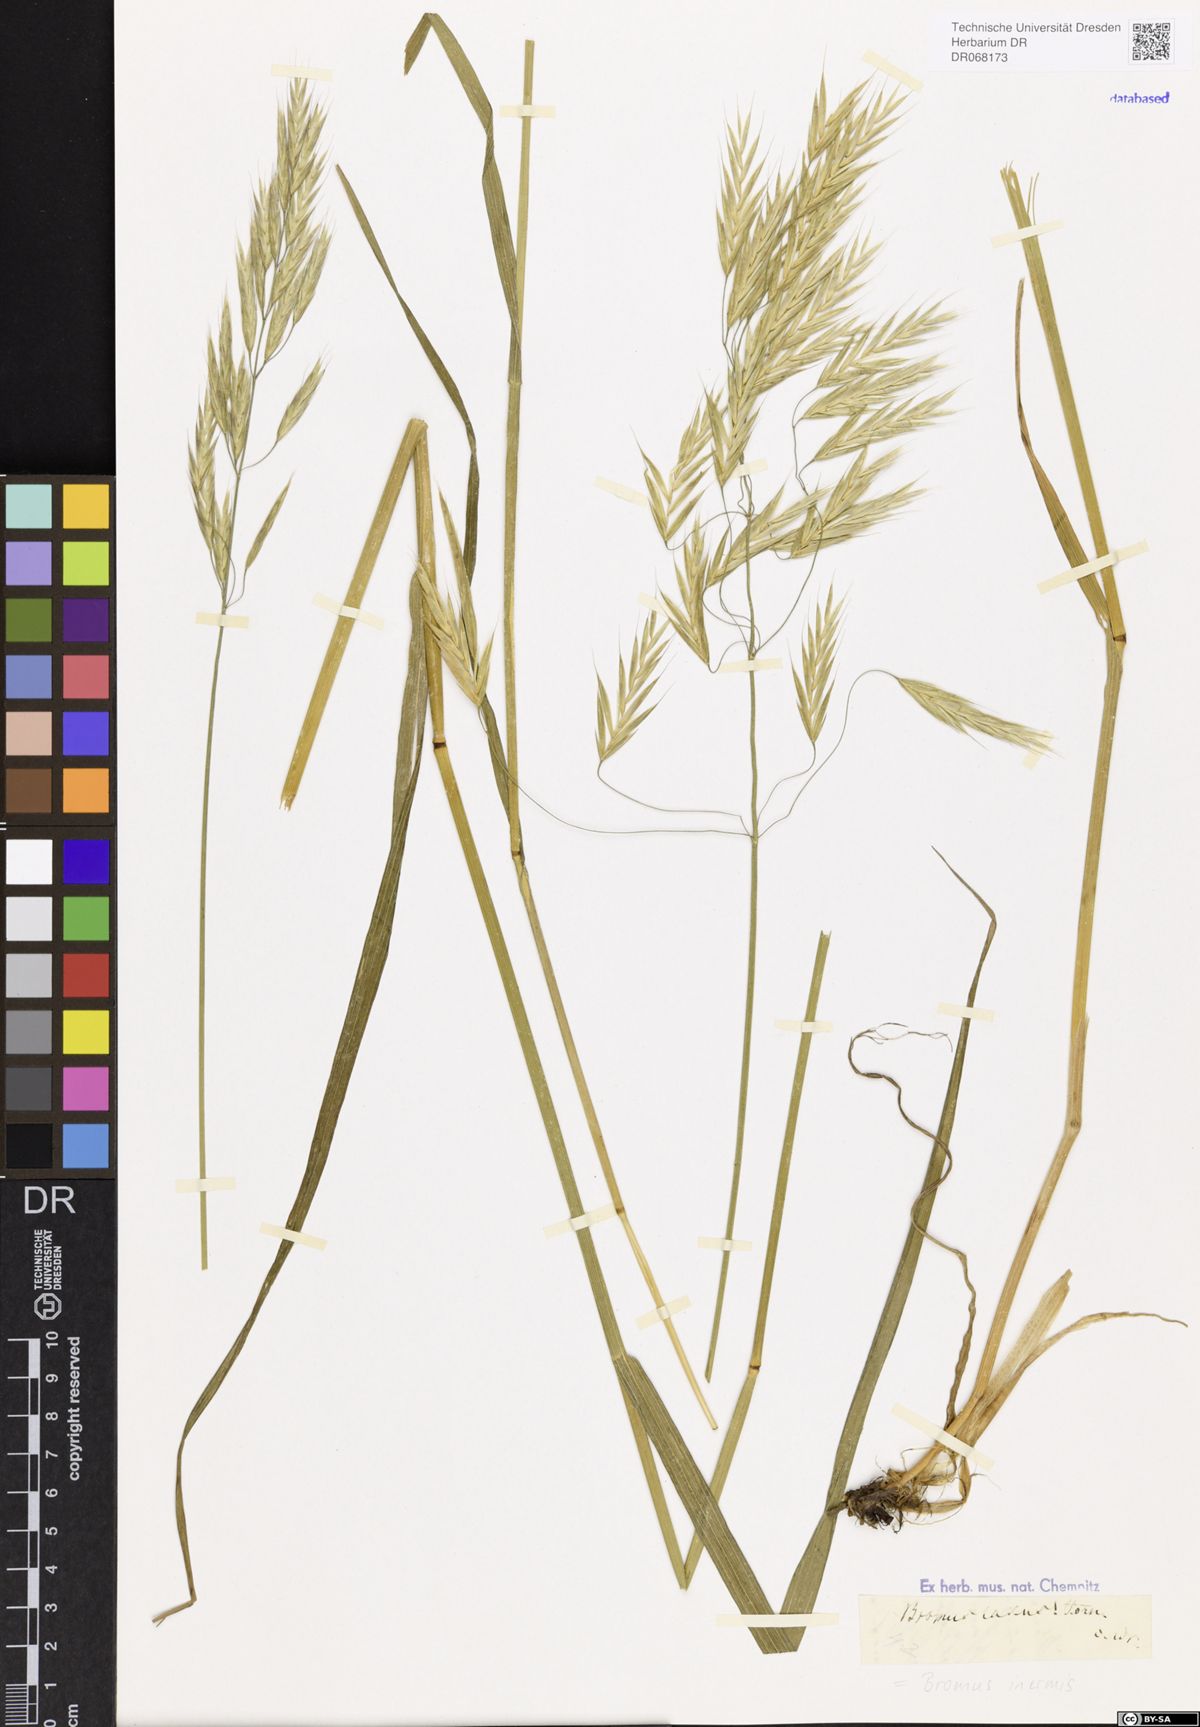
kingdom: Plantae
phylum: Tracheophyta
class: Liliopsida
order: Poales
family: Poaceae
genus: Bromus
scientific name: Bromus inermis
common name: Smooth brome
